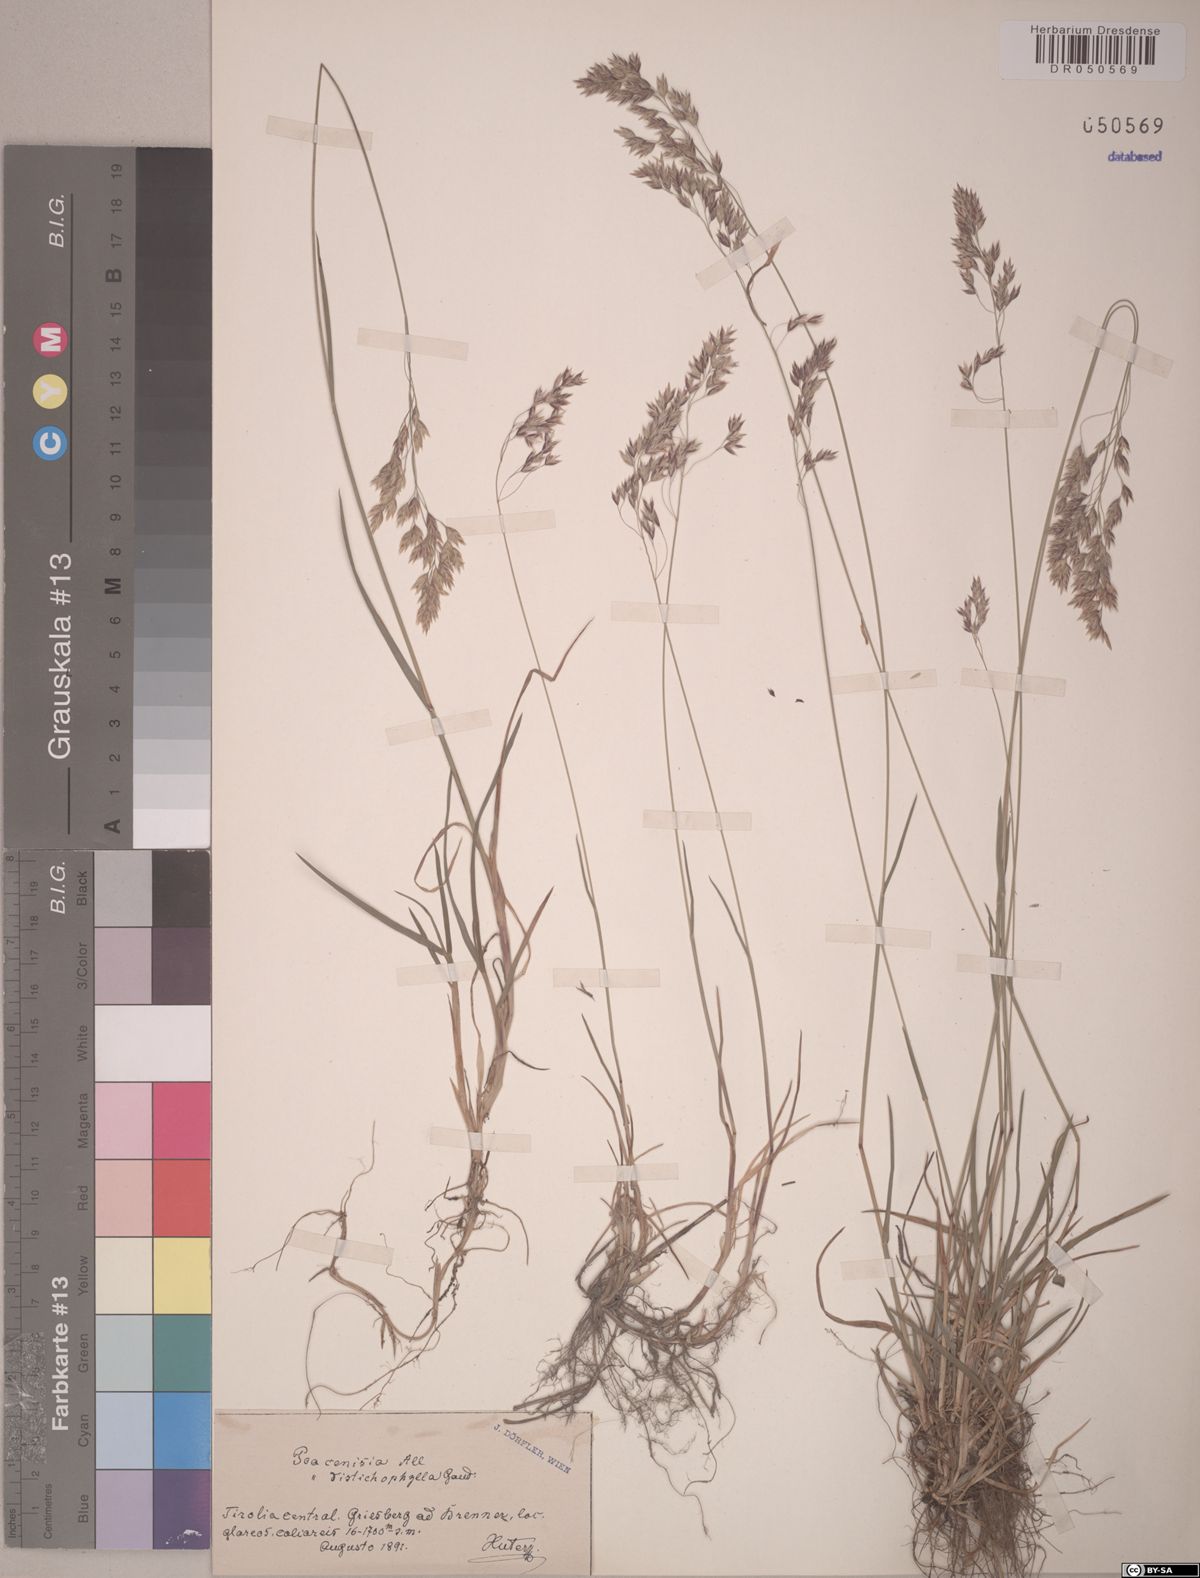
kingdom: Plantae
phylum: Tracheophyta
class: Liliopsida
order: Poales
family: Poaceae
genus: Poa
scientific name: Poa cenisia
